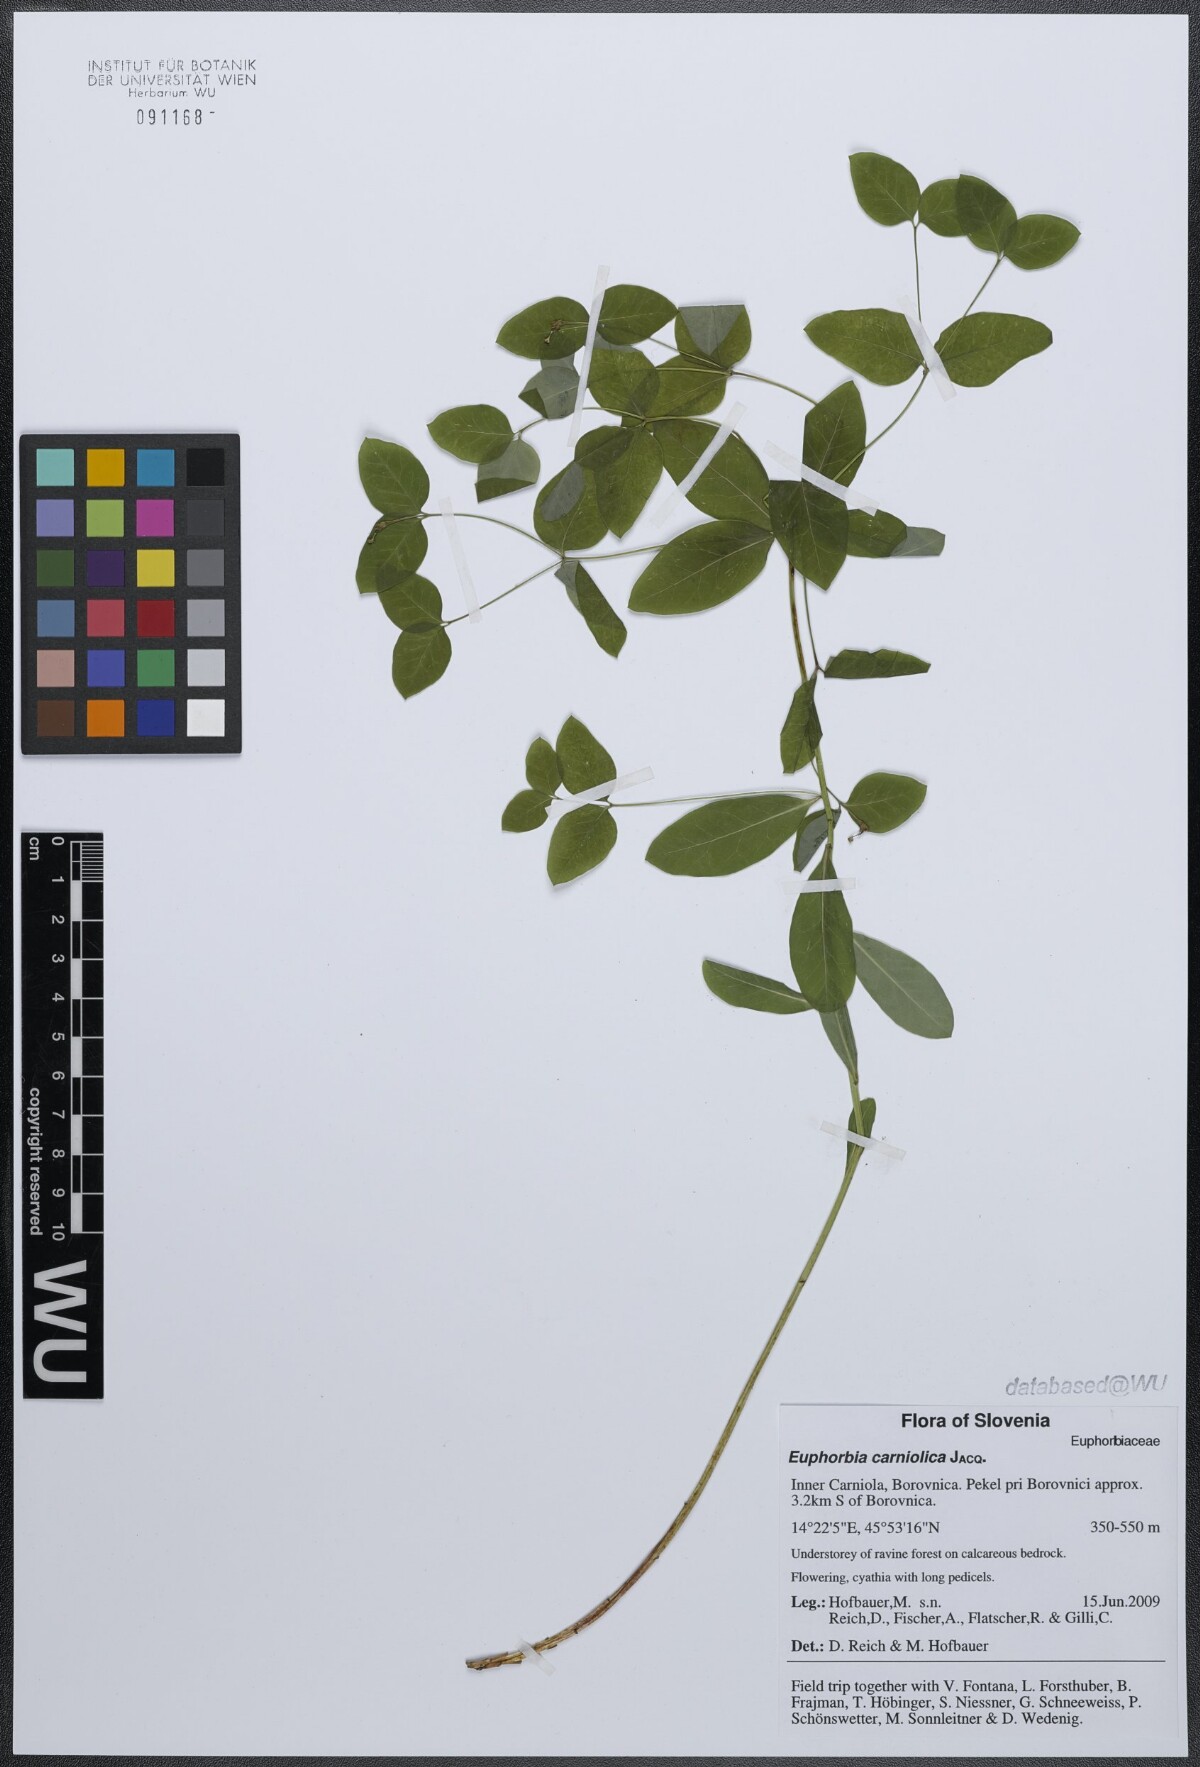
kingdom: Plantae
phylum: Tracheophyta
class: Magnoliopsida
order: Malpighiales
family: Euphorbiaceae
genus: Euphorbia
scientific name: Euphorbia carniolica
